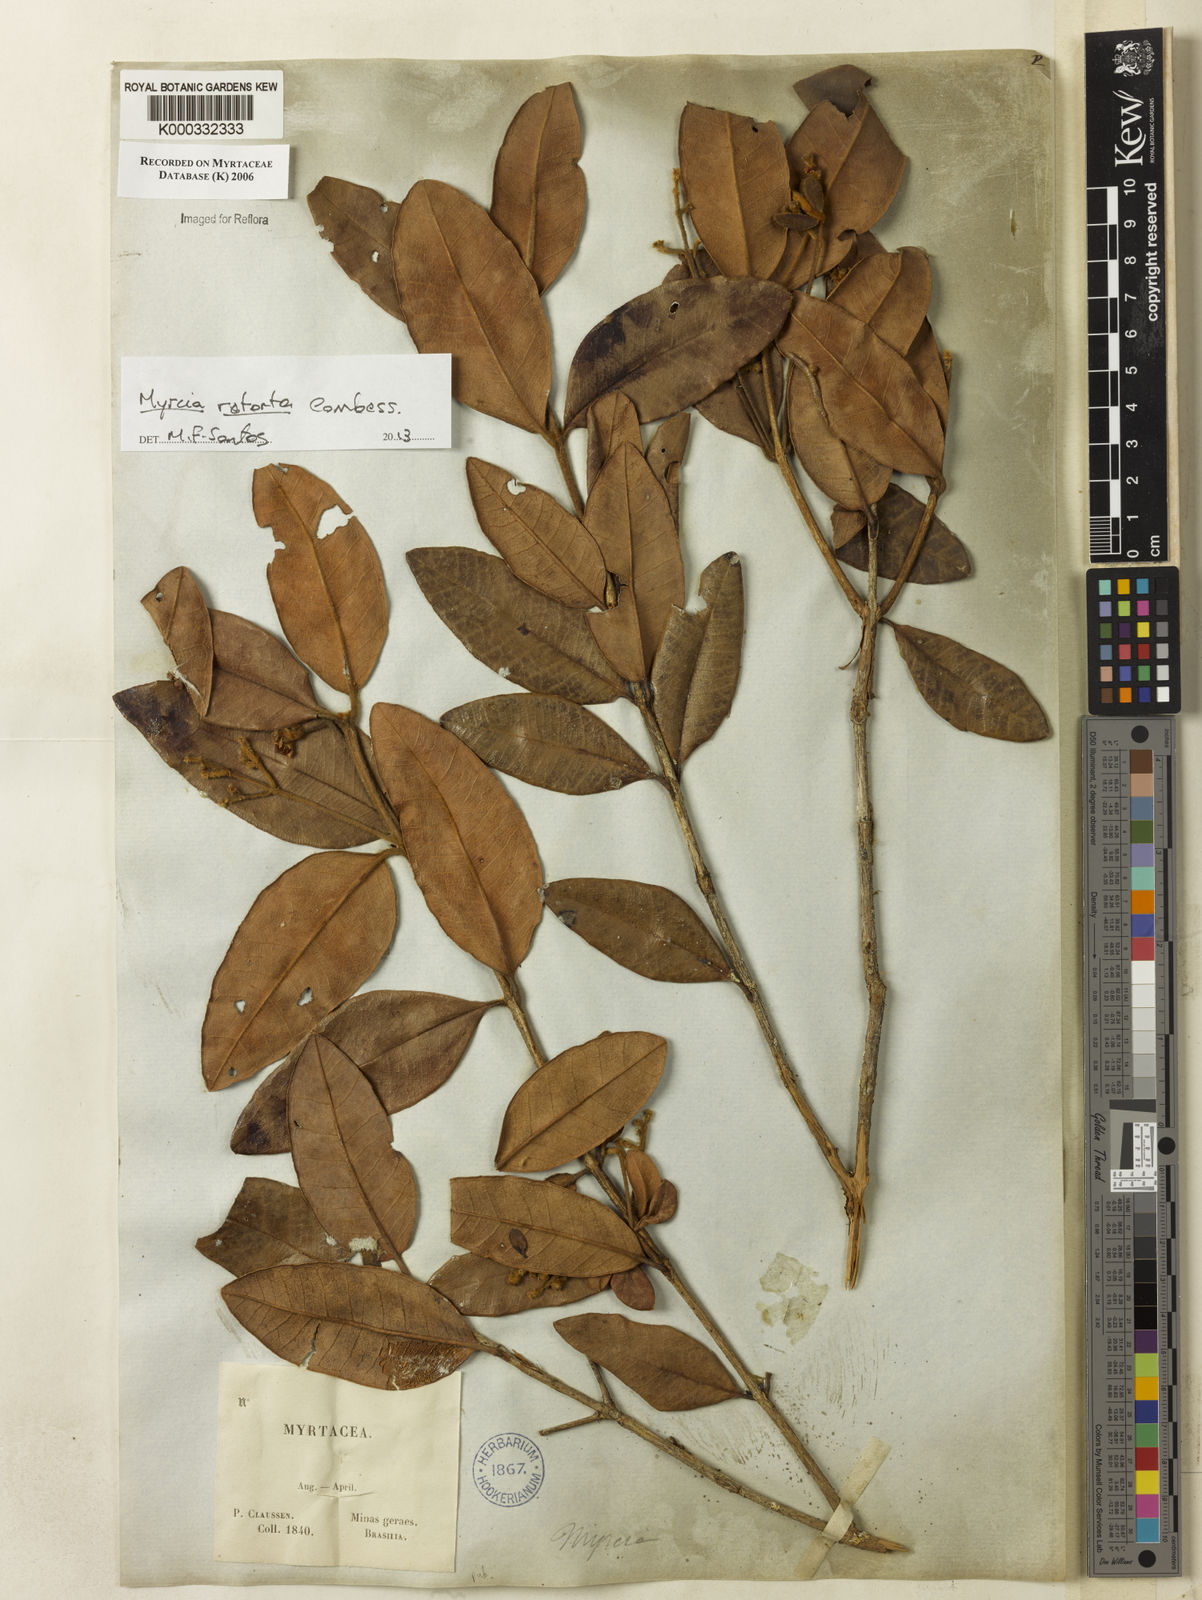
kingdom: Plantae
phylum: Tracheophyta
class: Magnoliopsida
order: Myrtales
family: Myrtaceae
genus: Myrcia
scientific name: Myrcia retorta
